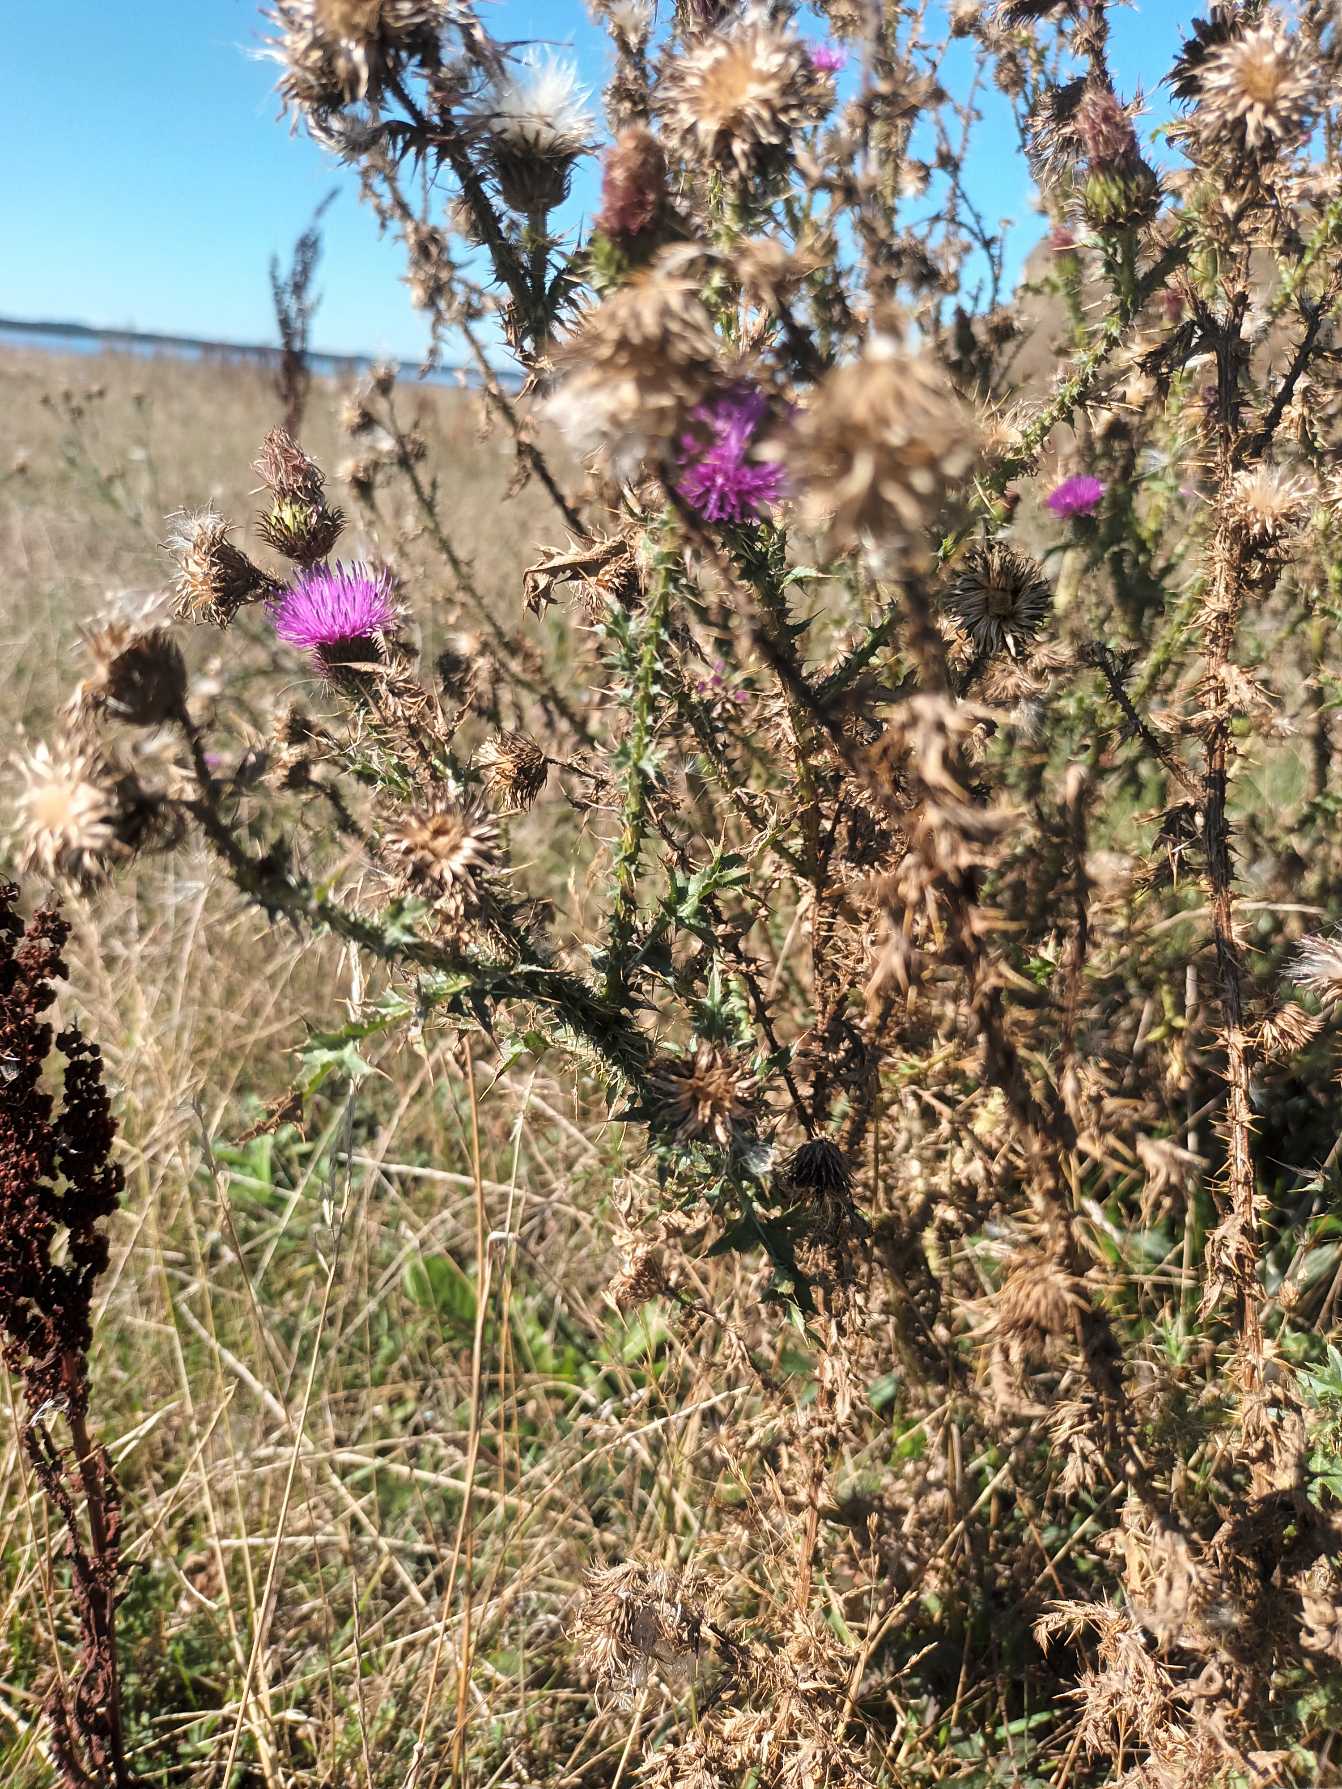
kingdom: Plantae
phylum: Tracheophyta
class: Magnoliopsida
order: Asterales
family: Asteraceae
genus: Carduus
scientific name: Carduus acanthoides
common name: Tornet tidsel
